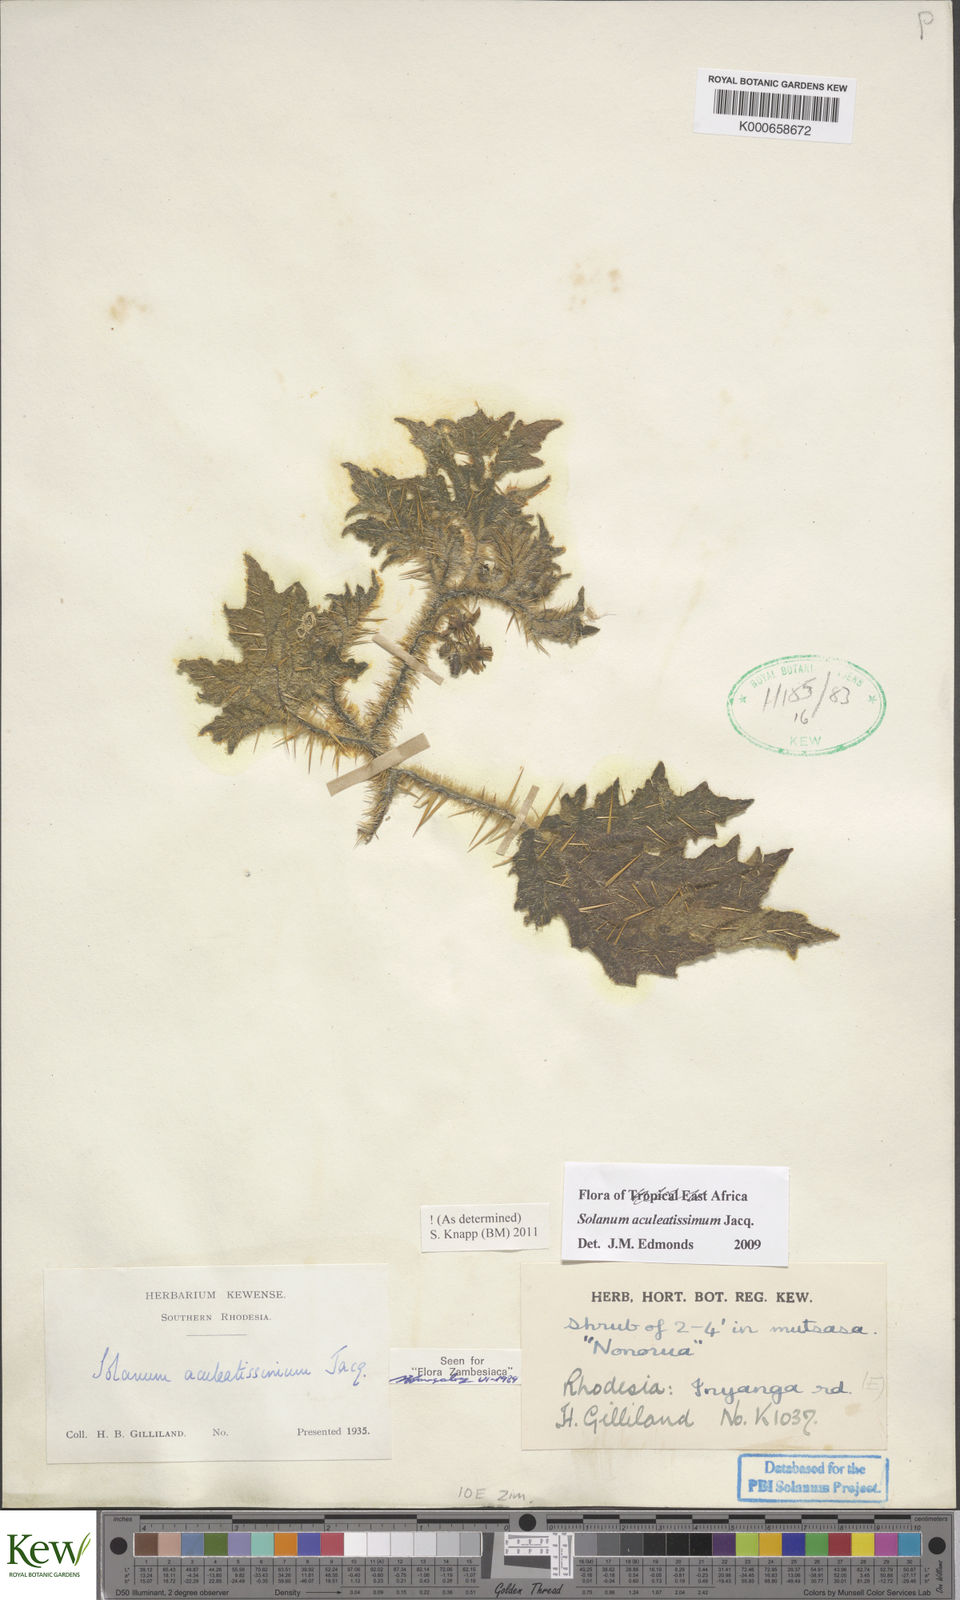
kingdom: Plantae
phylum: Tracheophyta
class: Magnoliopsida
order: Solanales
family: Solanaceae
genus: Solanum
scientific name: Solanum aculeatissimum
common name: Dutch eggplant
